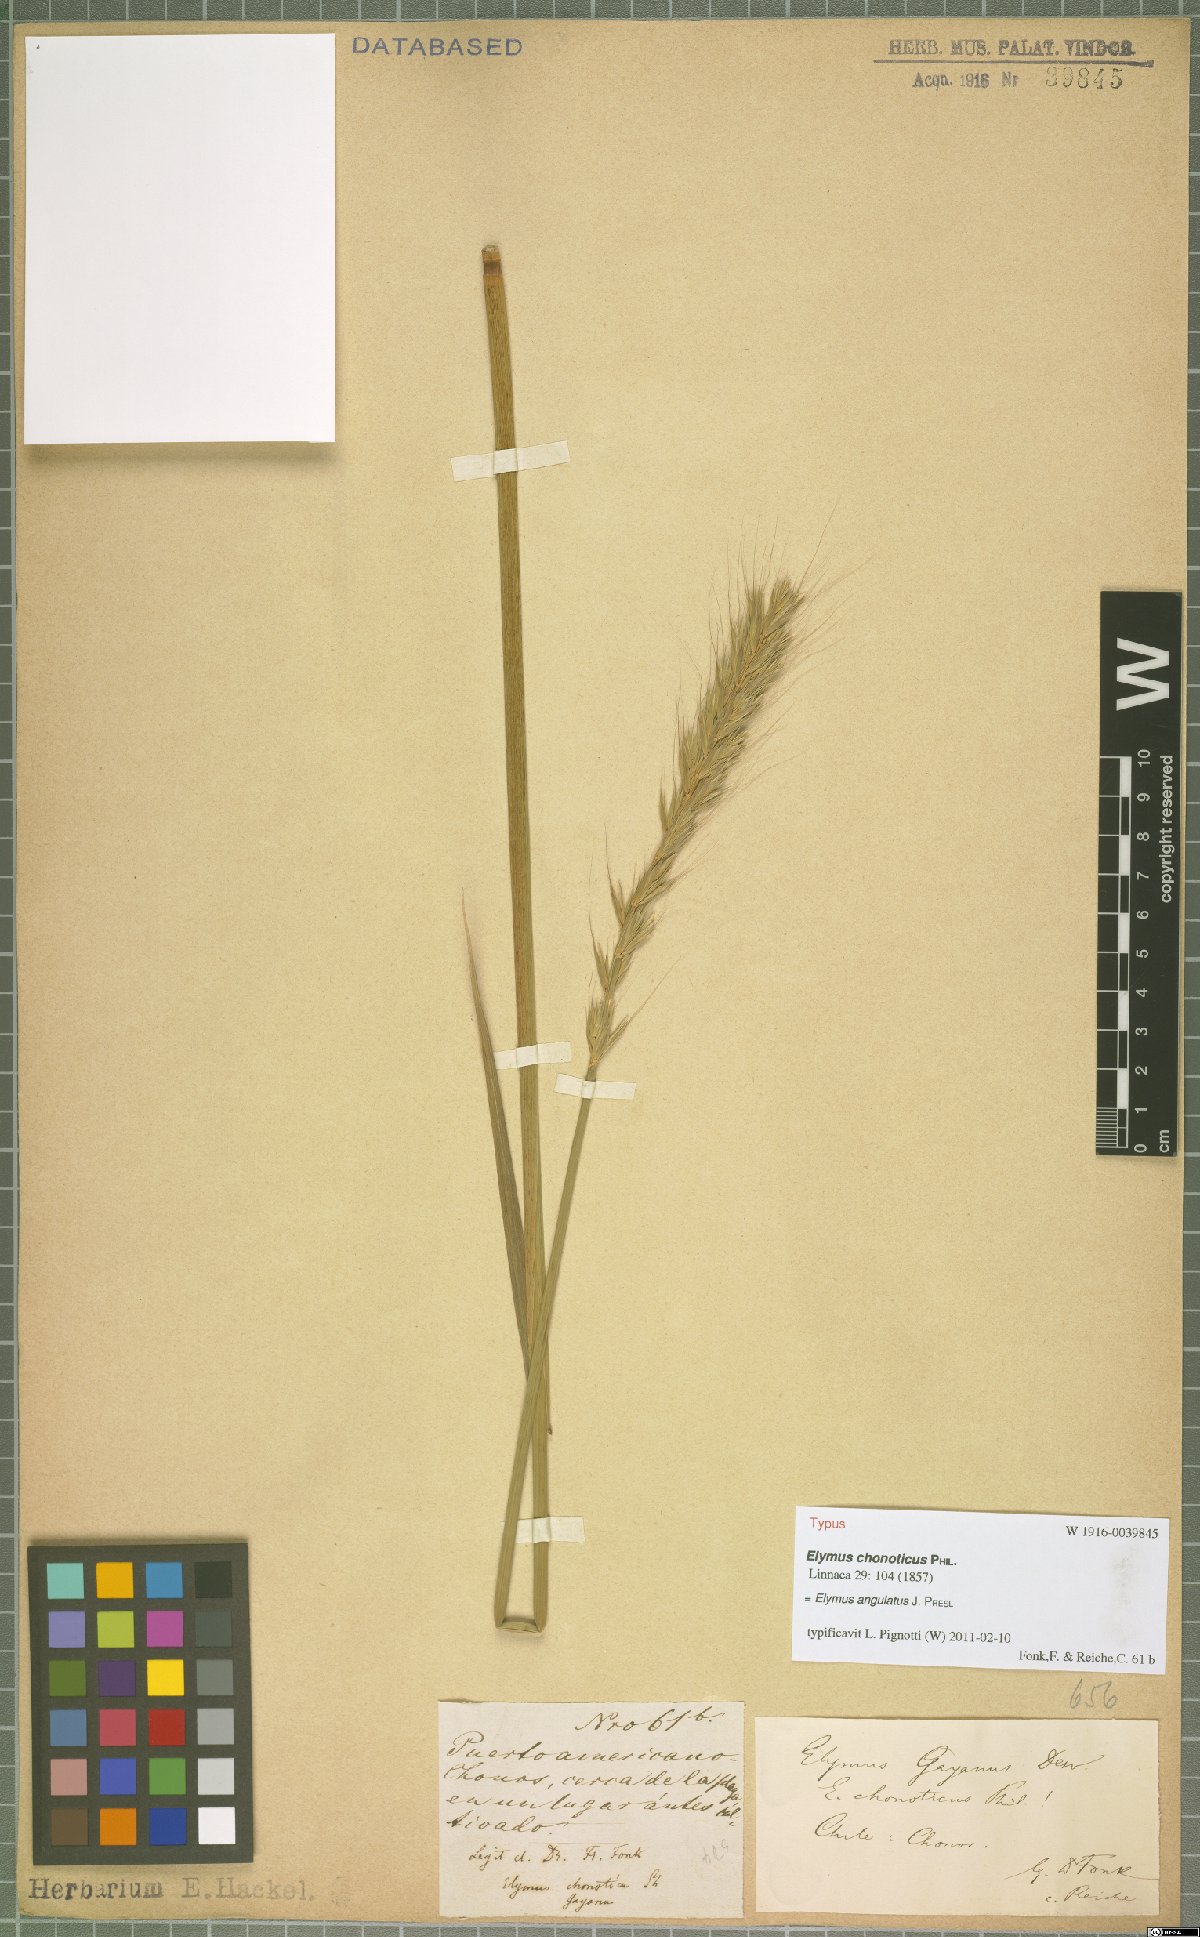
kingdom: Plantae
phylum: Tracheophyta
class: Liliopsida
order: Poales
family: Poaceae
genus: Elymus
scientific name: Elymus angulatus
